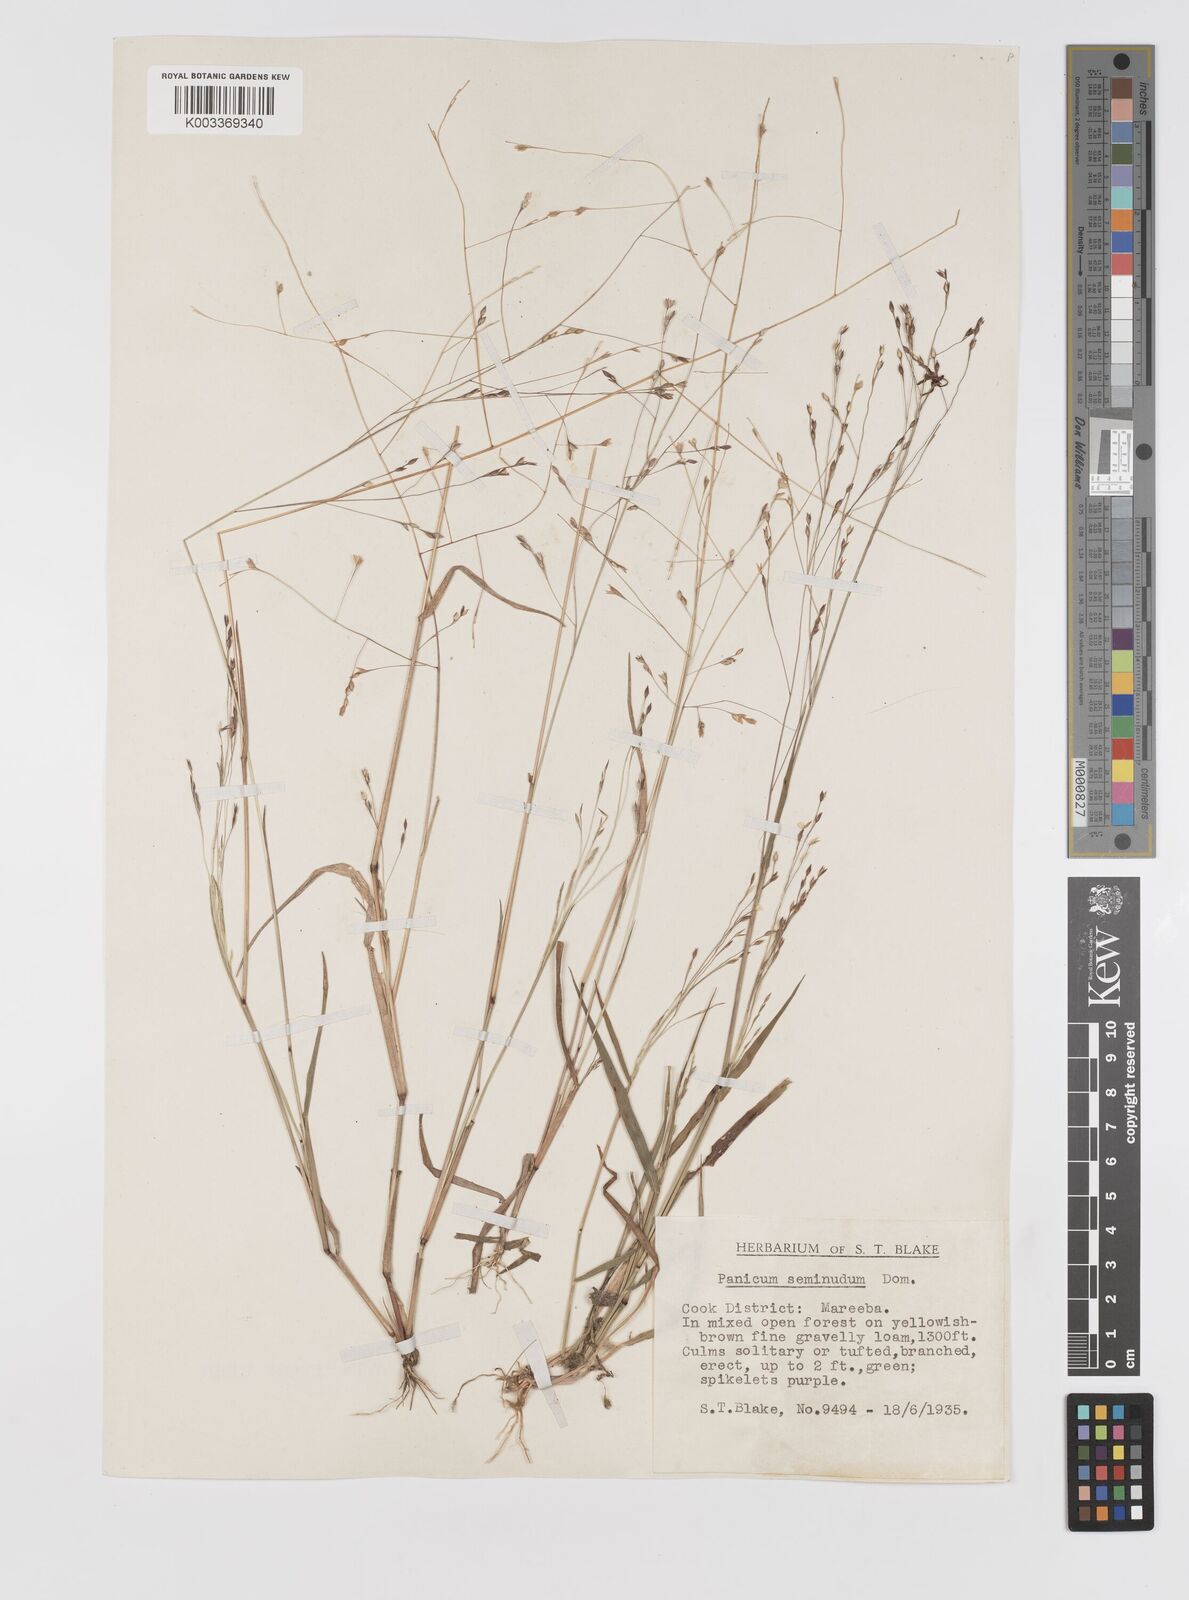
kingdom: Plantae
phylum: Tracheophyta
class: Liliopsida
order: Poales
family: Poaceae
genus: Panicum
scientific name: Panicum seminudum
